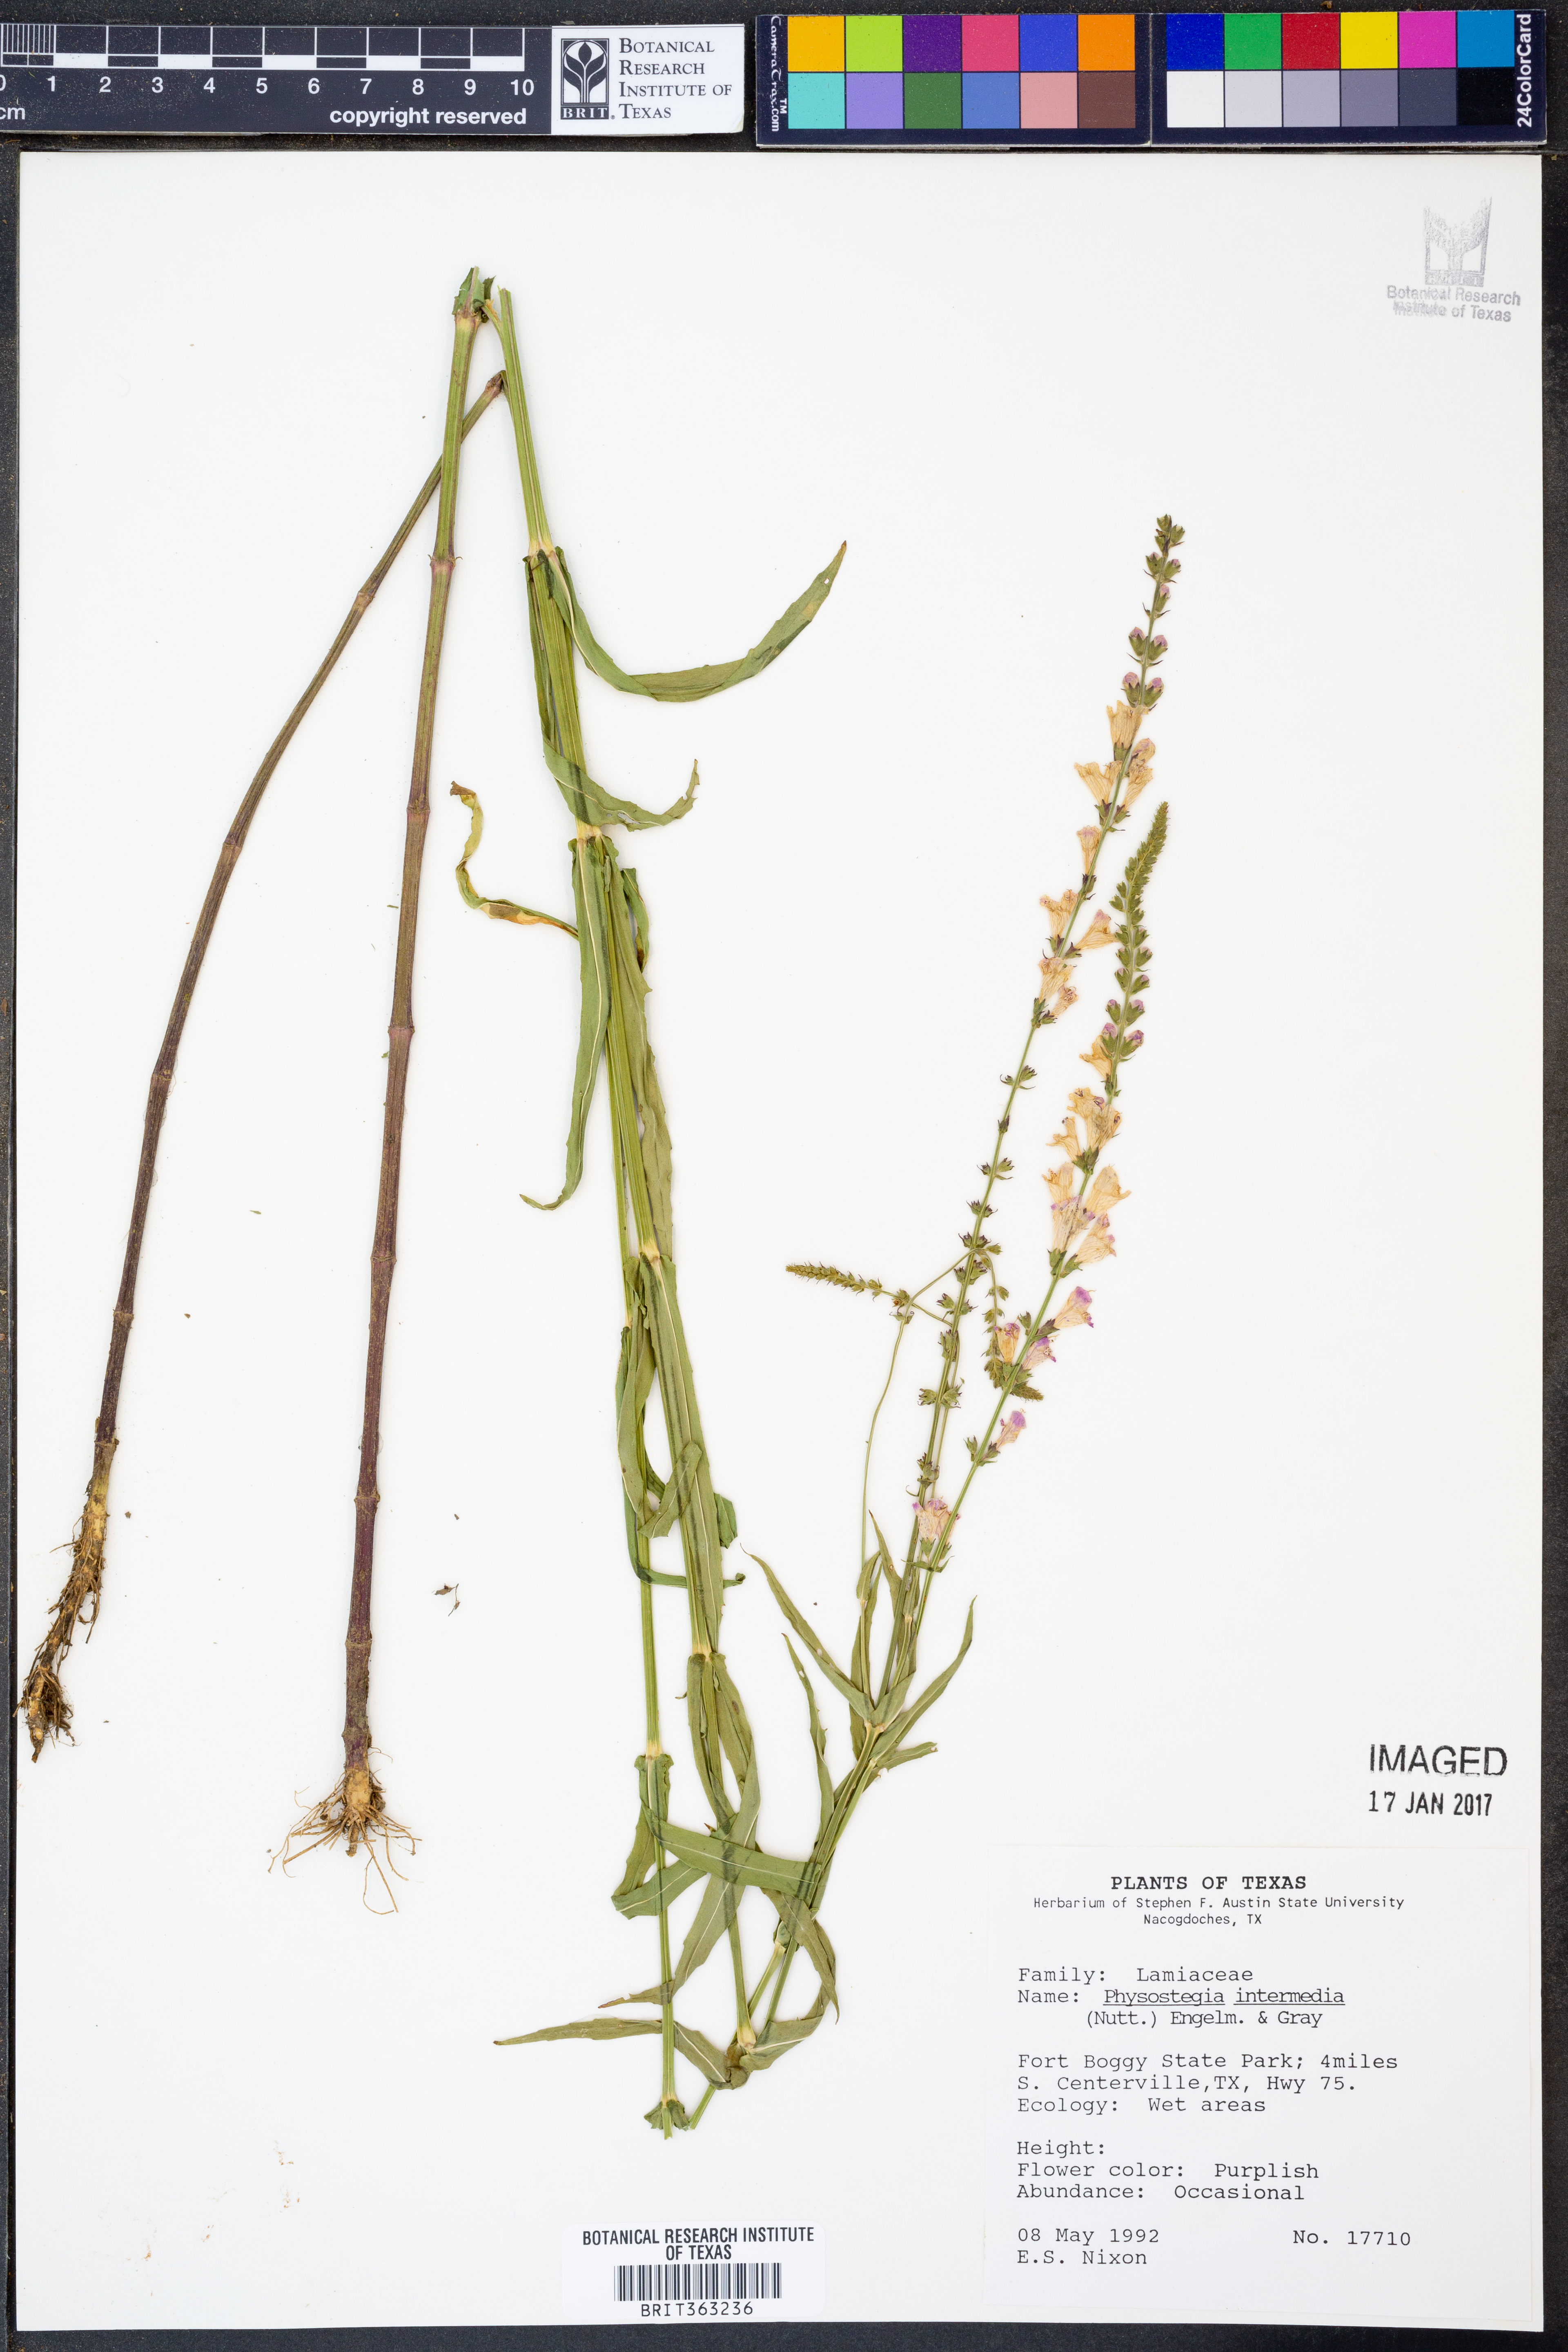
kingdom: Plantae
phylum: Tracheophyta
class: Magnoliopsida
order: Lamiales
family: Lamiaceae
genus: Physostegia
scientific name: Physostegia intermedia
